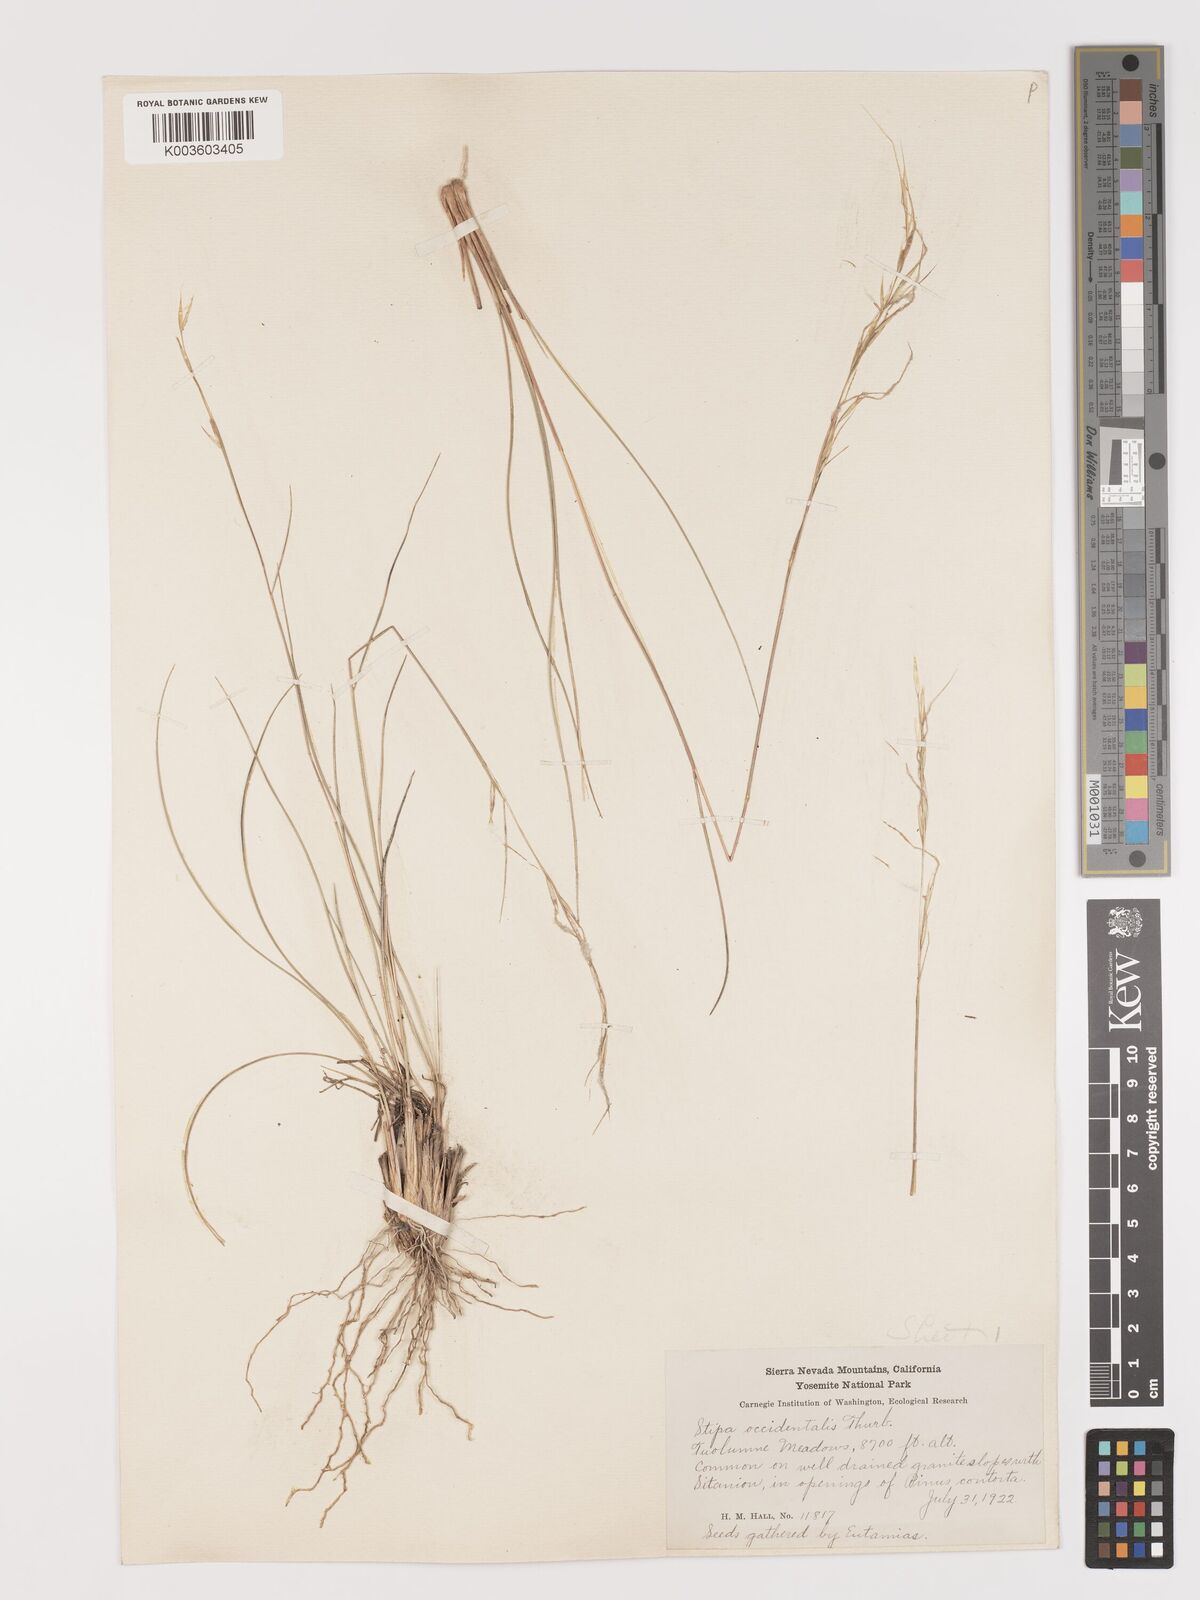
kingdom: Plantae
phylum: Tracheophyta
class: Liliopsida
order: Poales
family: Poaceae
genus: Eriocoma
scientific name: Eriocoma thurberiana
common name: Thurber's needlegrass
